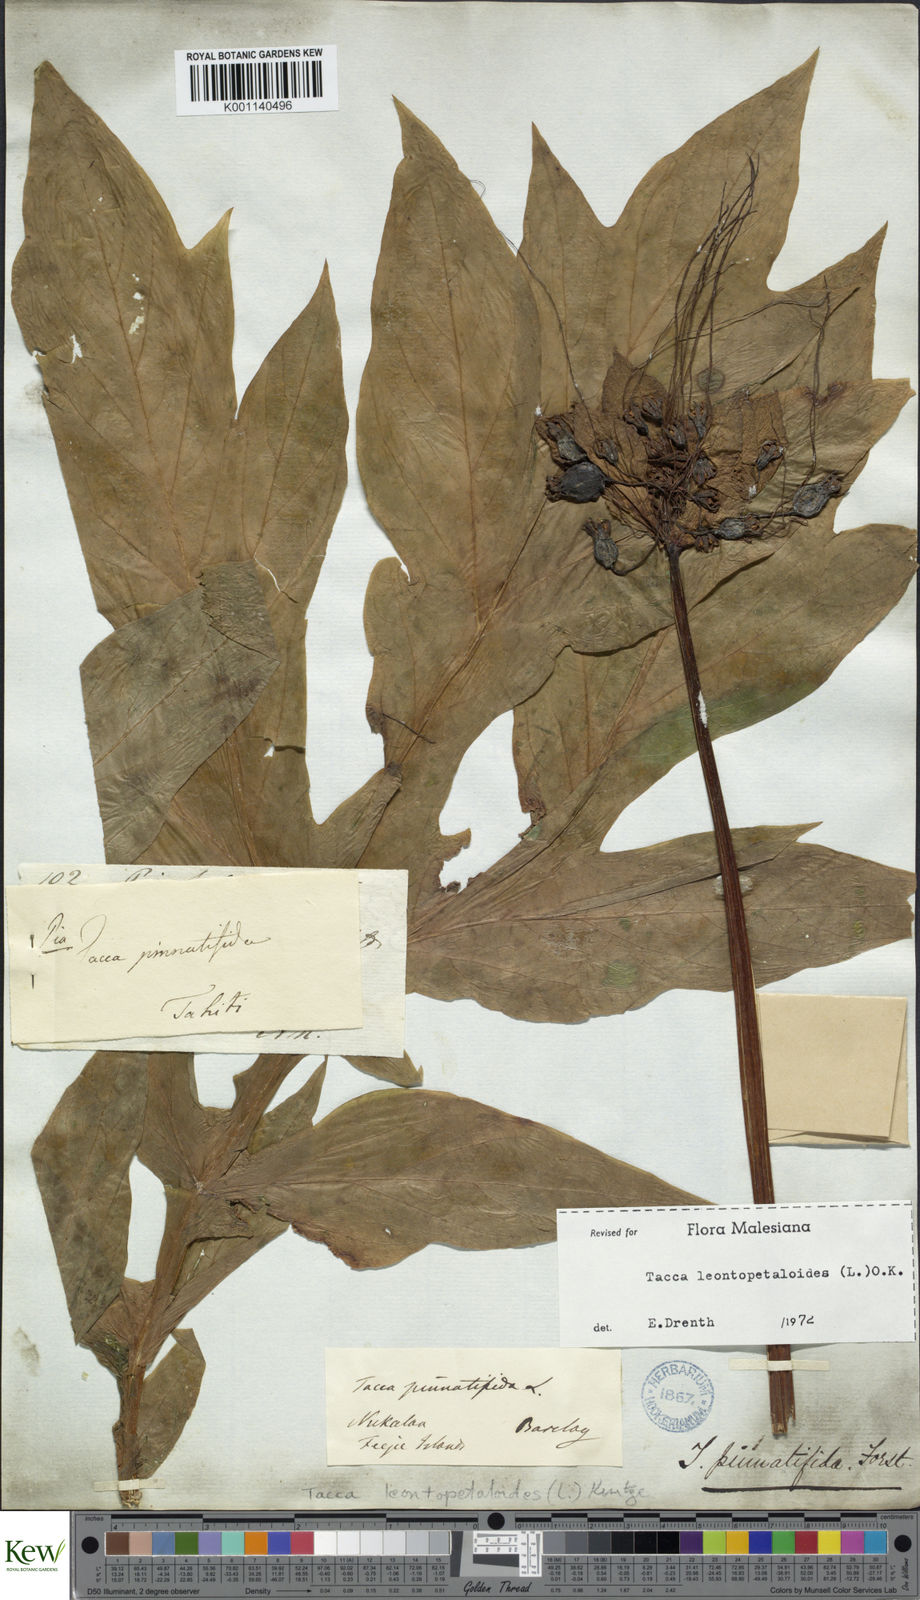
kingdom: Plantae
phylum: Tracheophyta
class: Liliopsida
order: Dioscoreales
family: Dioscoreaceae
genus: Tacca
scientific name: Tacca leontopetaloides
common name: Arrowroot
